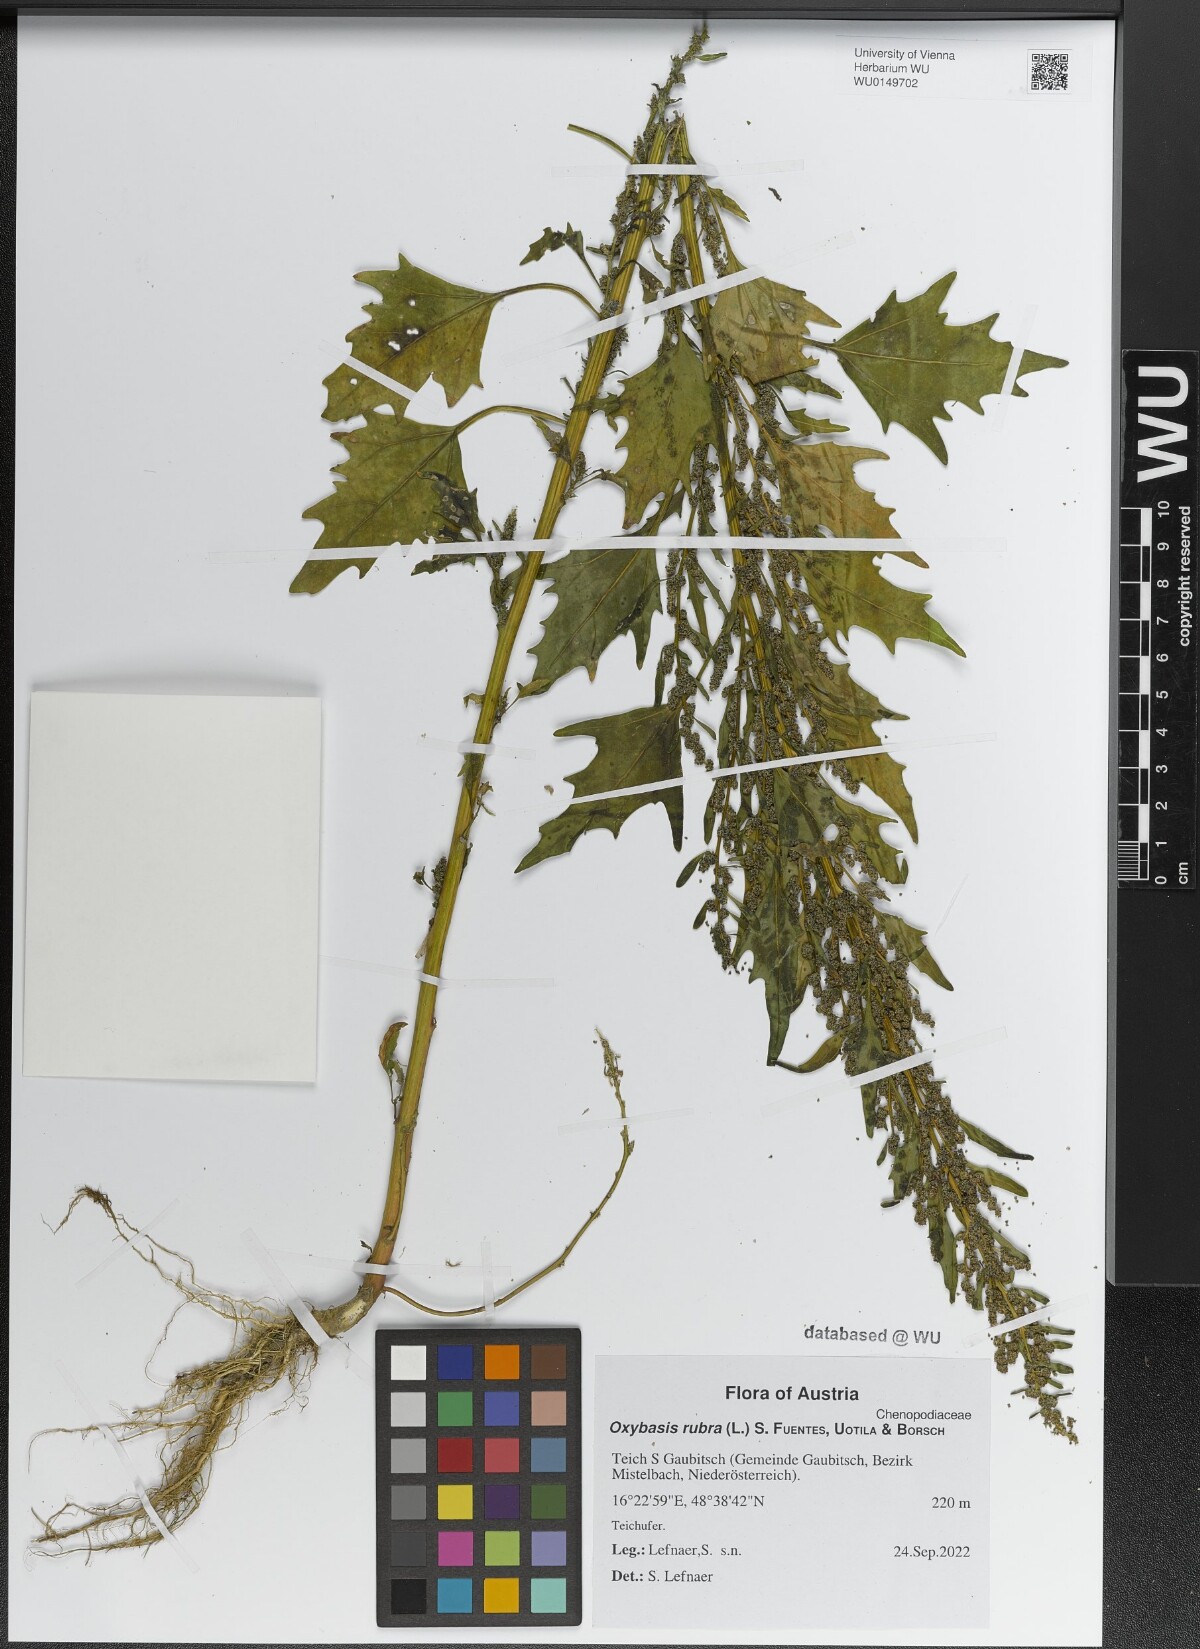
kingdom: Plantae
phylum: Tracheophyta
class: Magnoliopsida
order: Caryophyllales
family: Amaranthaceae
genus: Oxybasis
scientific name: Oxybasis rubra
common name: Red goosefoot
